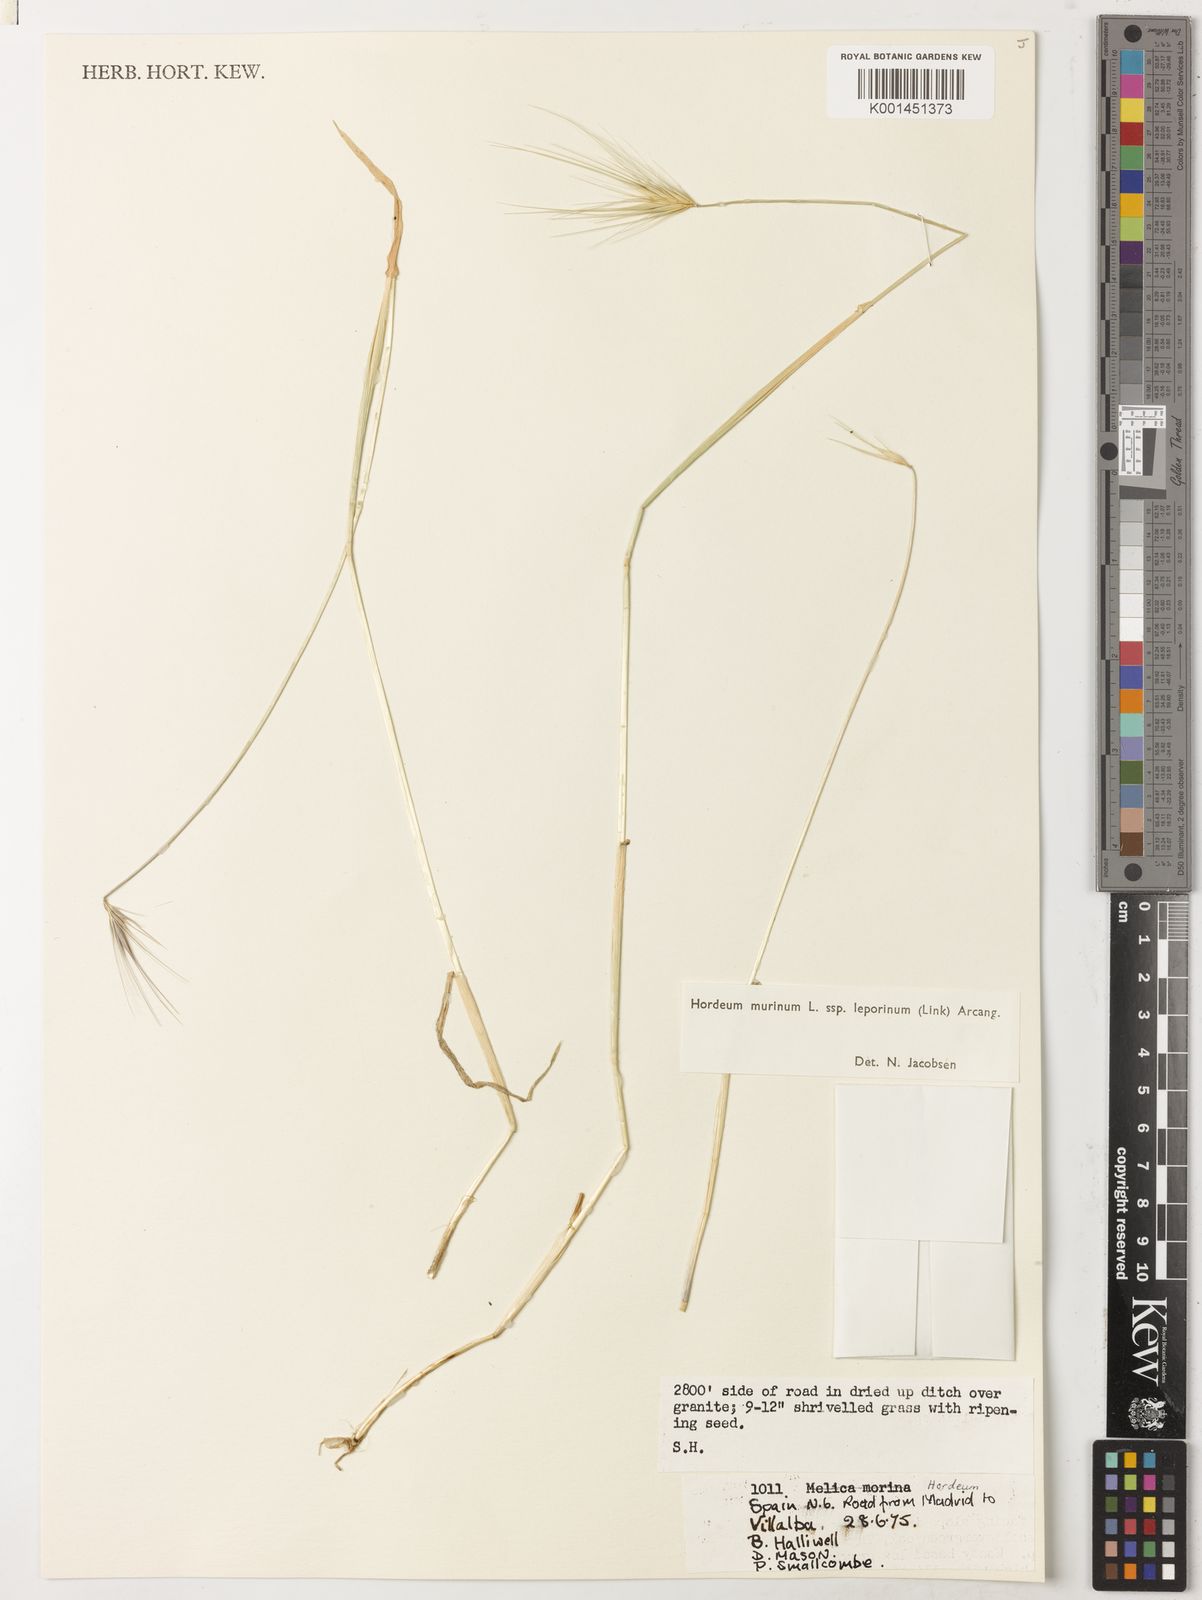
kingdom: Plantae
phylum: Tracheophyta
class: Liliopsida
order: Poales
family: Poaceae
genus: Hordeum
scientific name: Hordeum murinum
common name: Wall barley
